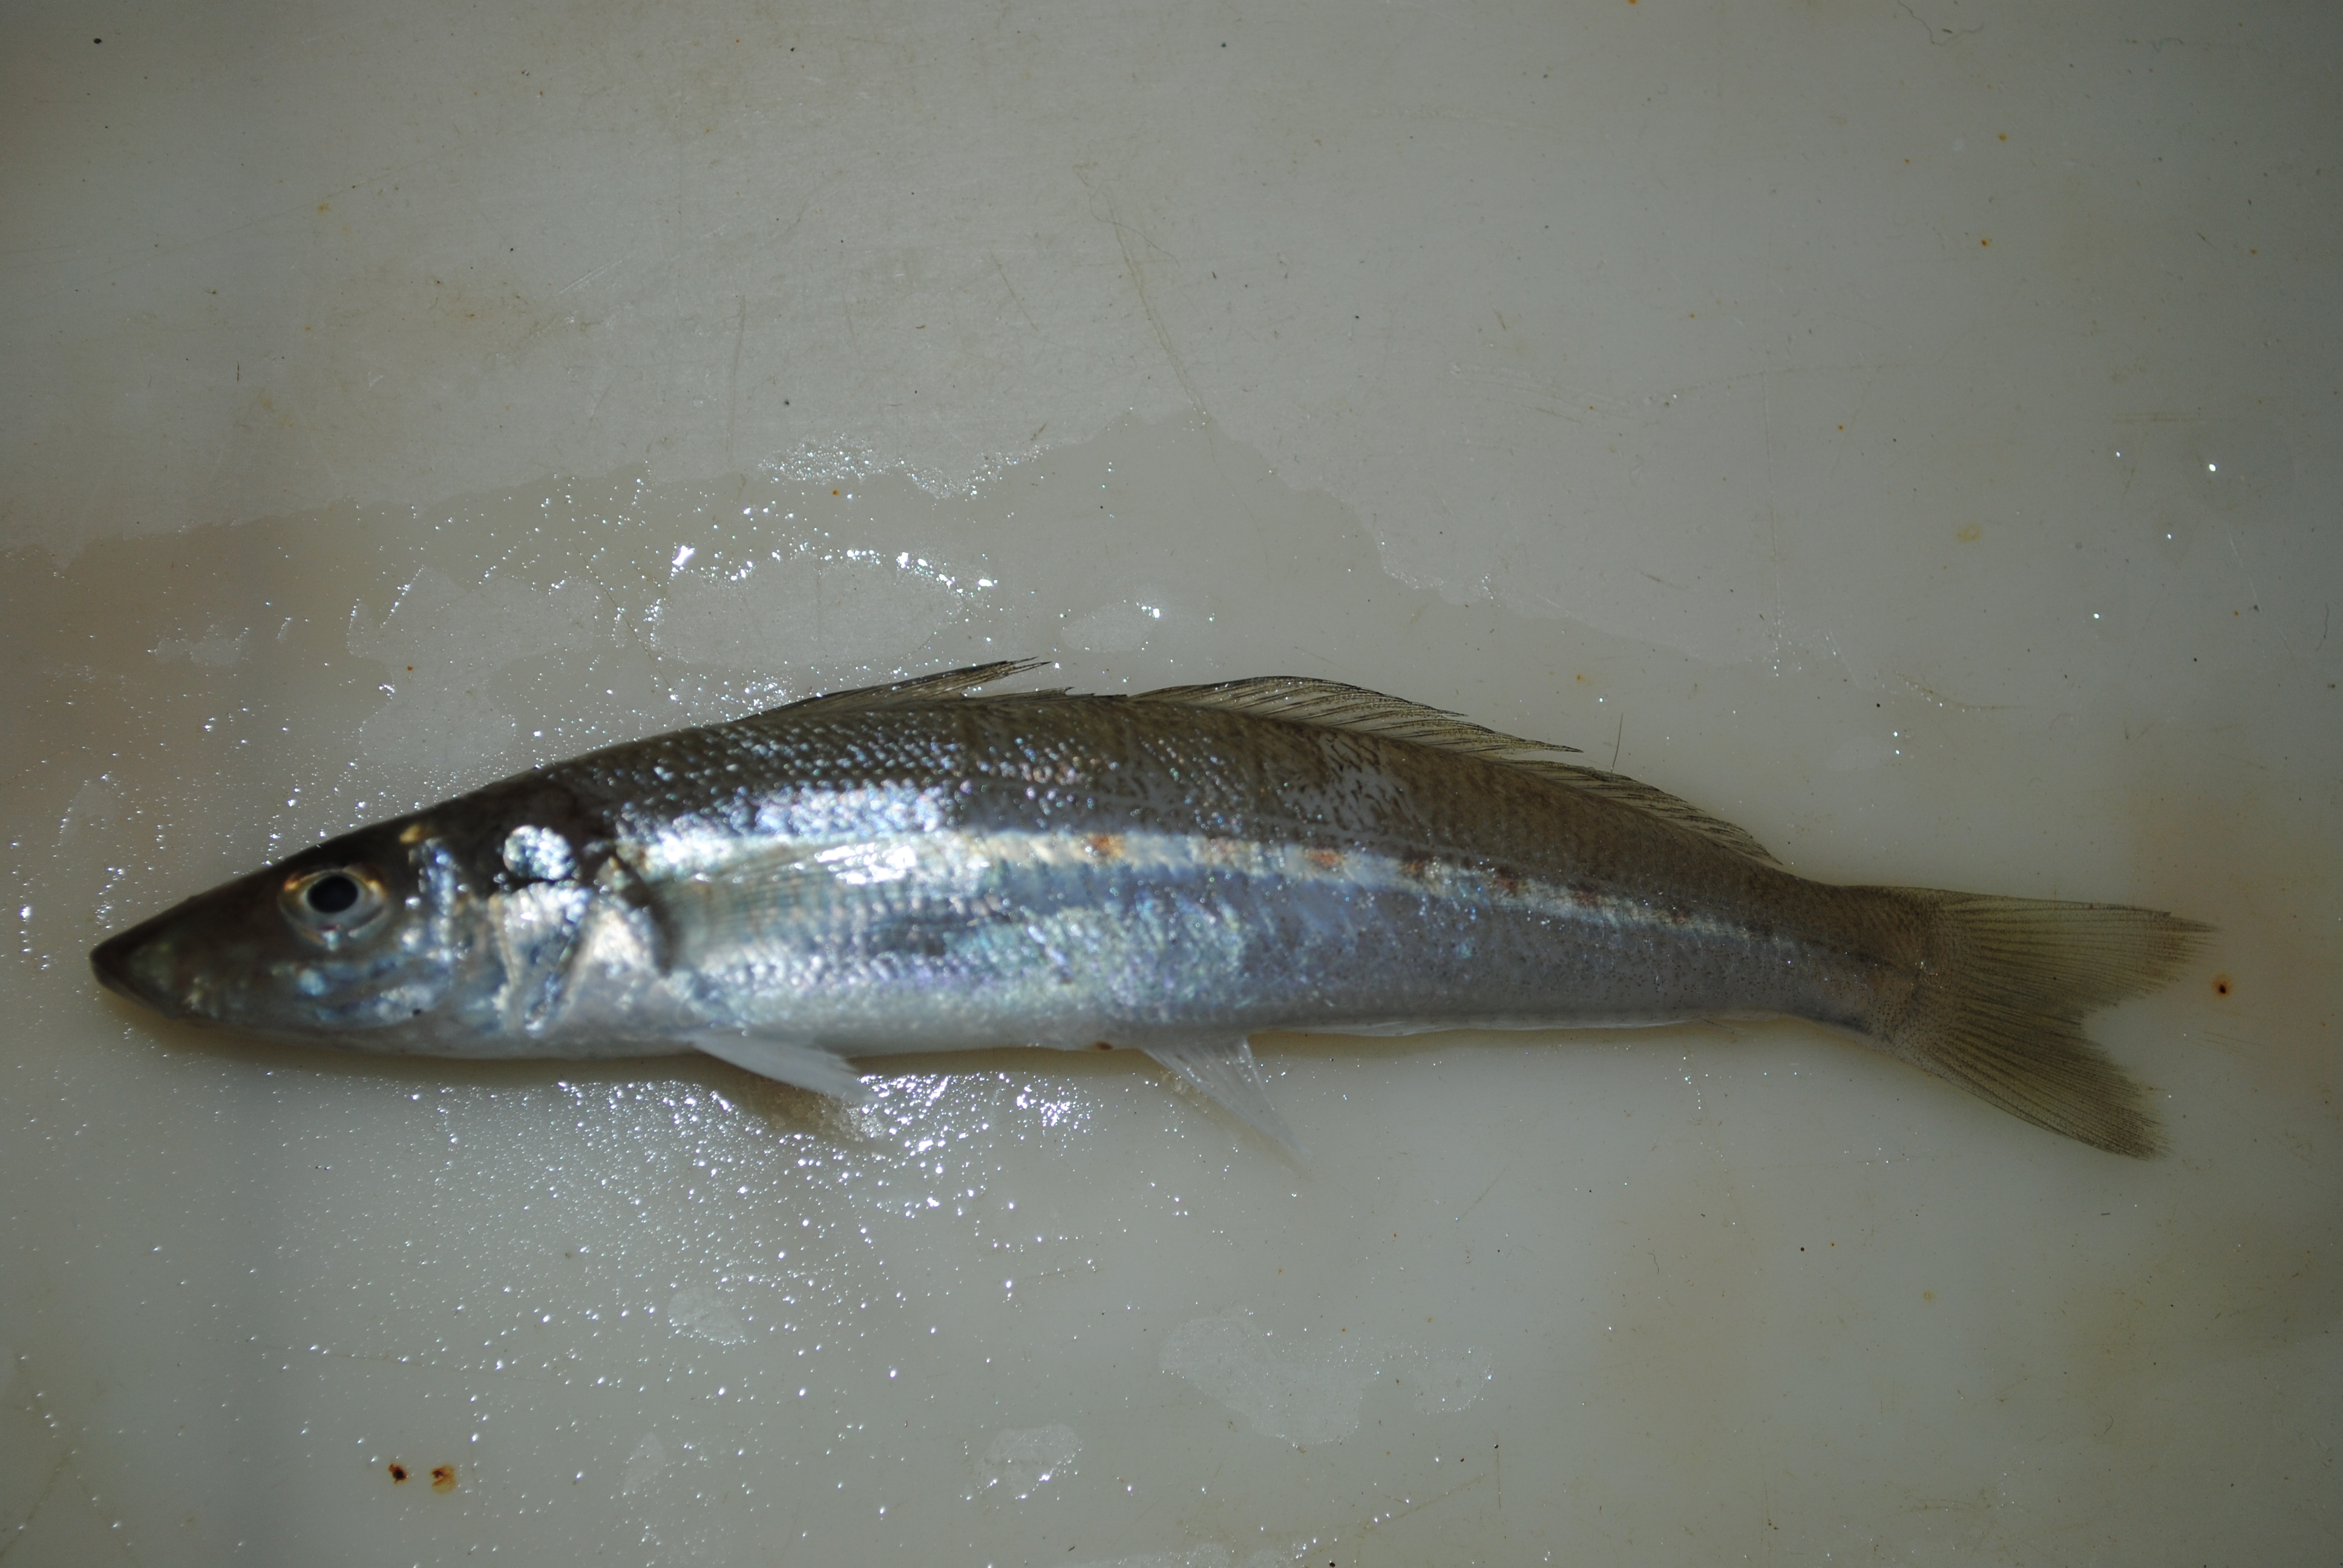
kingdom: Animalia
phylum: Chordata
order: Perciformes
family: Sillaginidae
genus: Sillago
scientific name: Sillago caudicula
